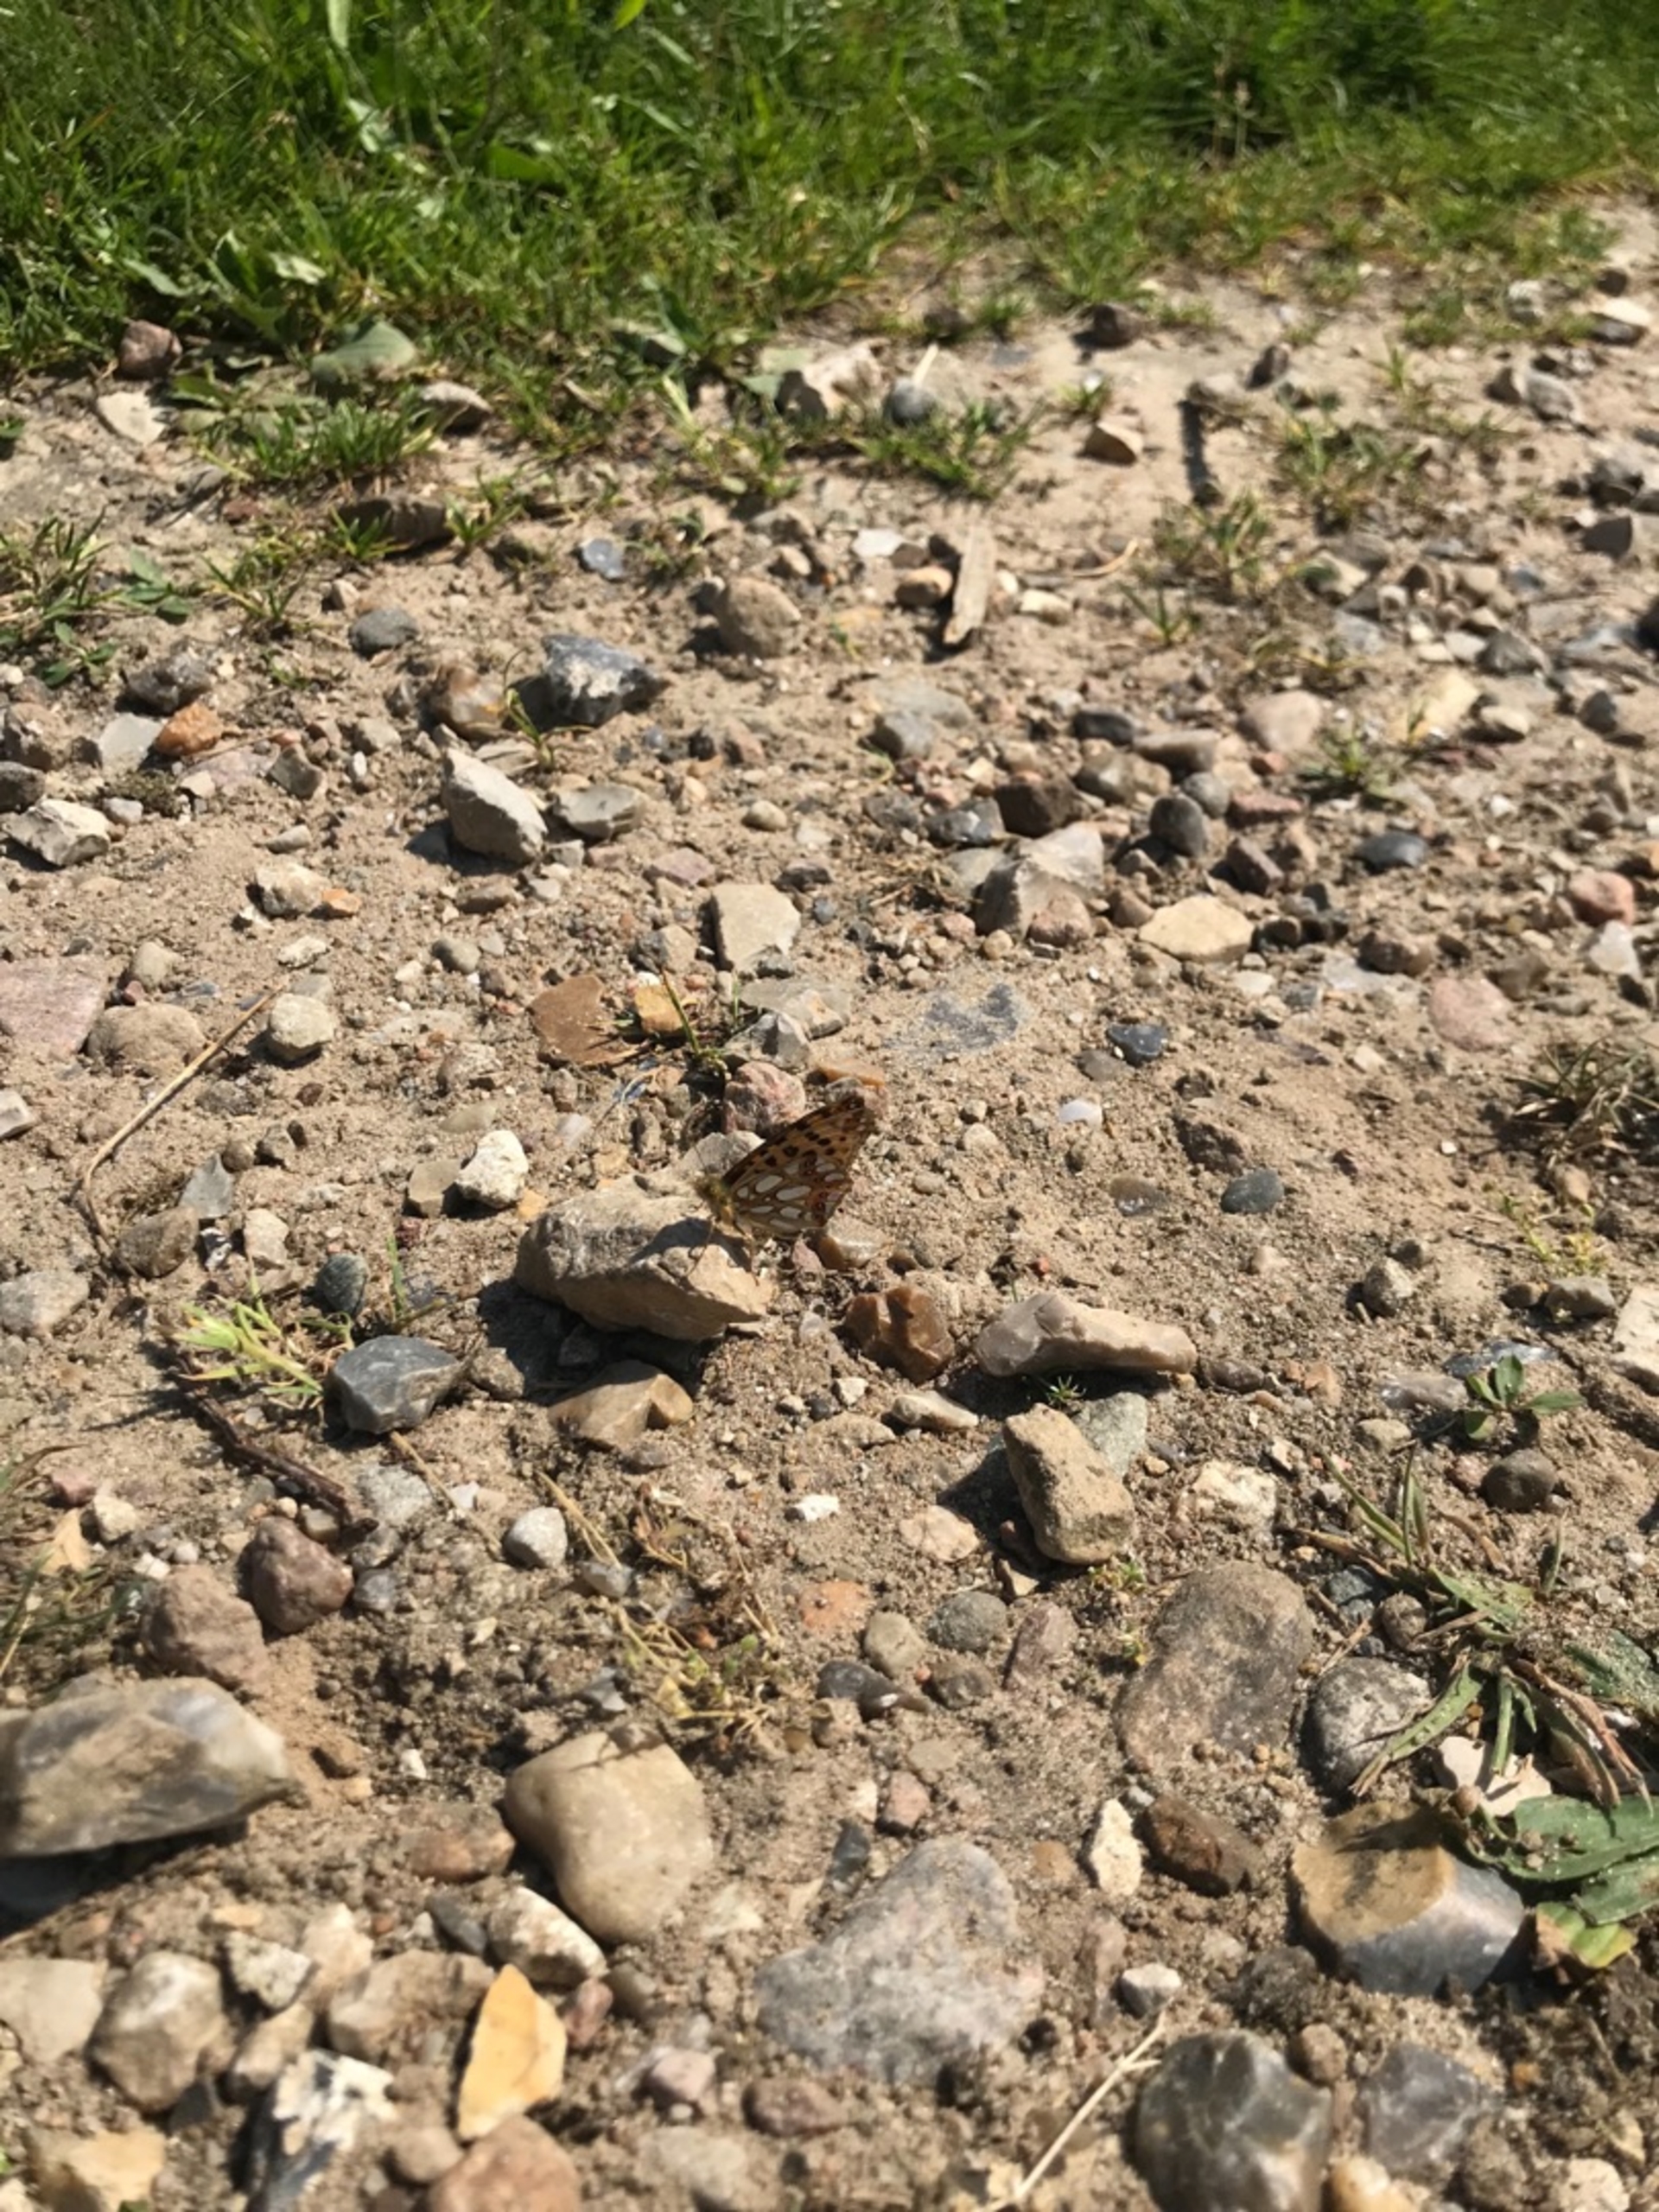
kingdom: Animalia
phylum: Arthropoda
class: Insecta
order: Lepidoptera
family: Nymphalidae
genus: Issoria
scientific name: Issoria lathonia
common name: Storplettet perlemorsommerfugl
